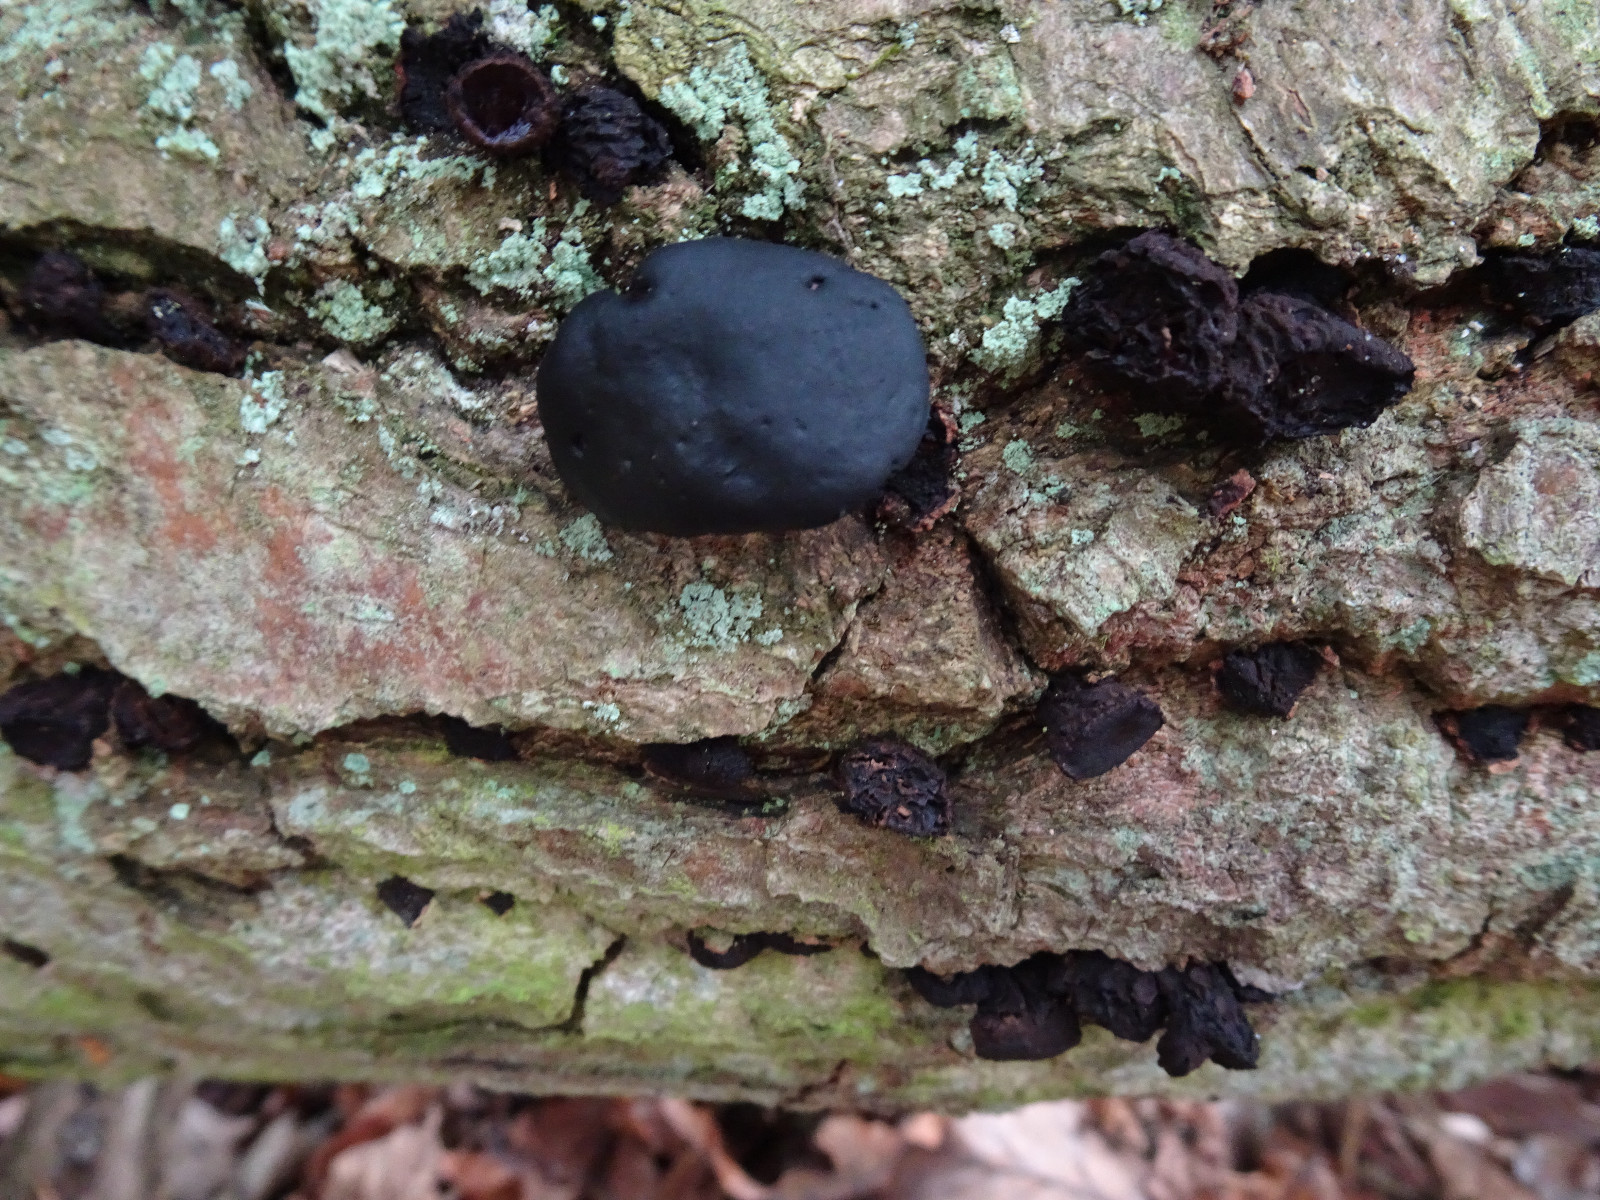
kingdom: Fungi
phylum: Ascomycota
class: Leotiomycetes
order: Phacidiales
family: Phacidiaceae
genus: Bulgaria
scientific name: Bulgaria inquinans
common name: afsmittende topsvamp
